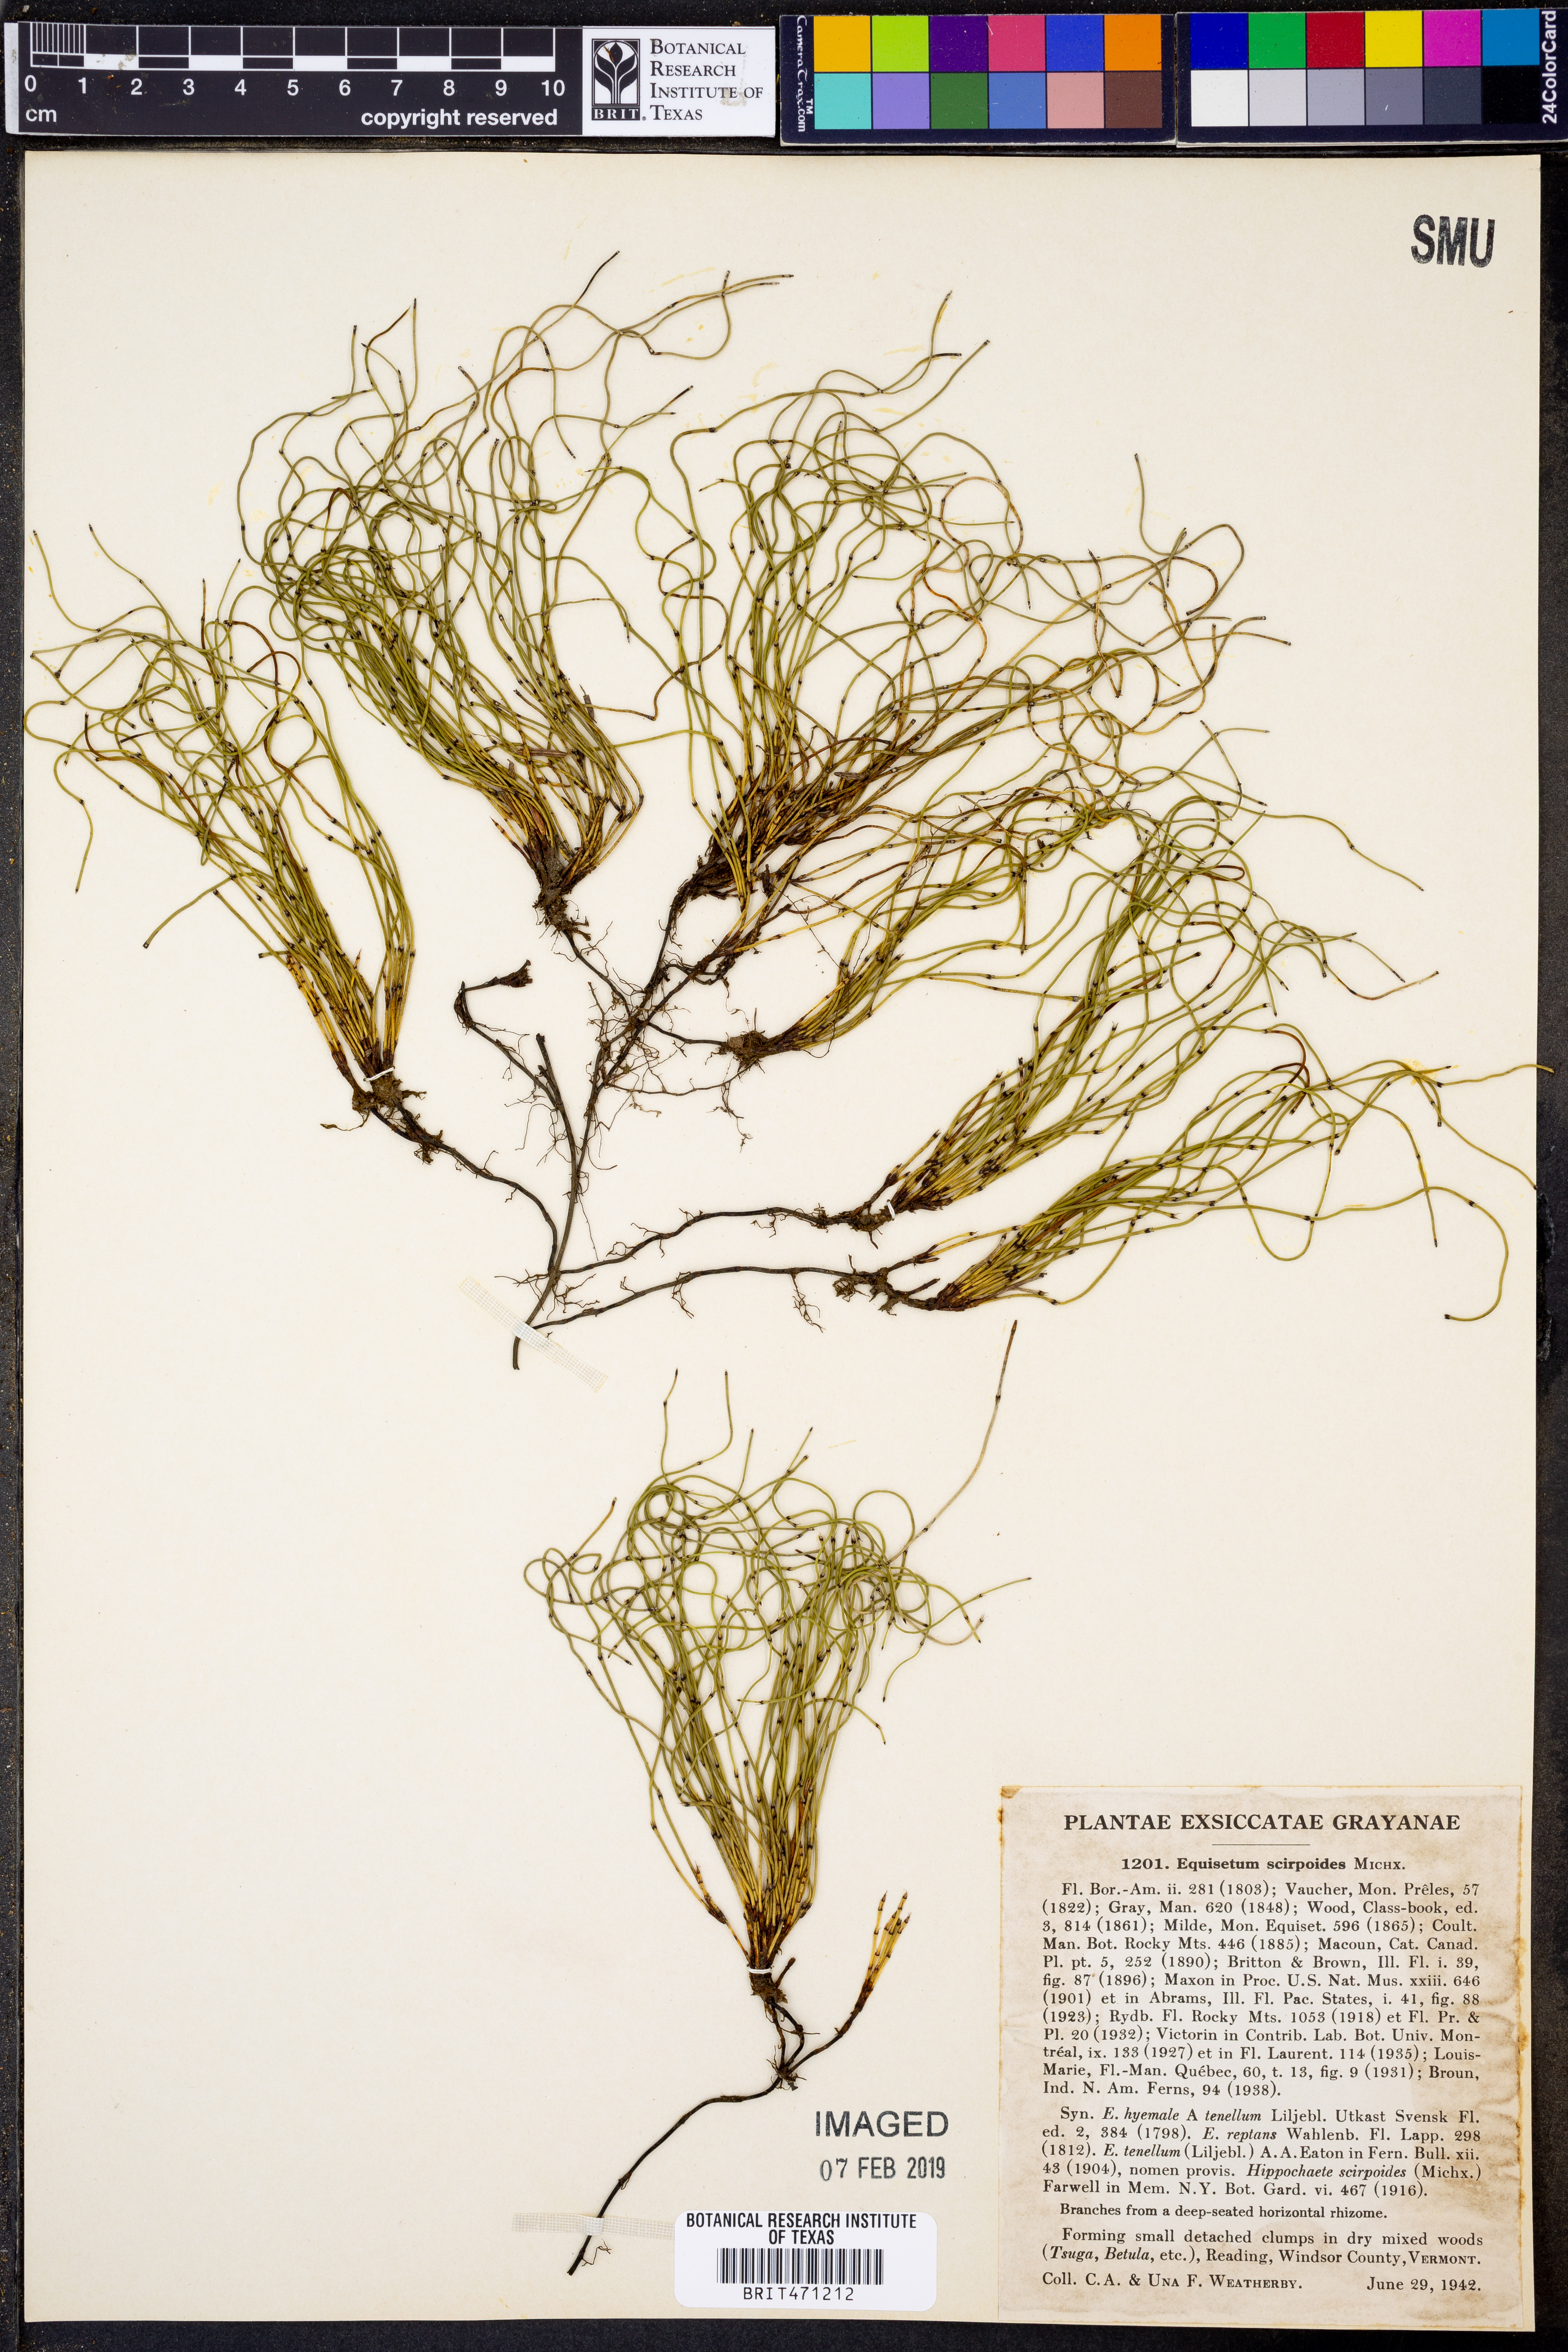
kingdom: Plantae
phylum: Tracheophyta
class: Polypodiopsida
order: Equisetales
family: Equisetaceae
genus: Equisetum
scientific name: Equisetum scirpoides
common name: Delicate horsetail
